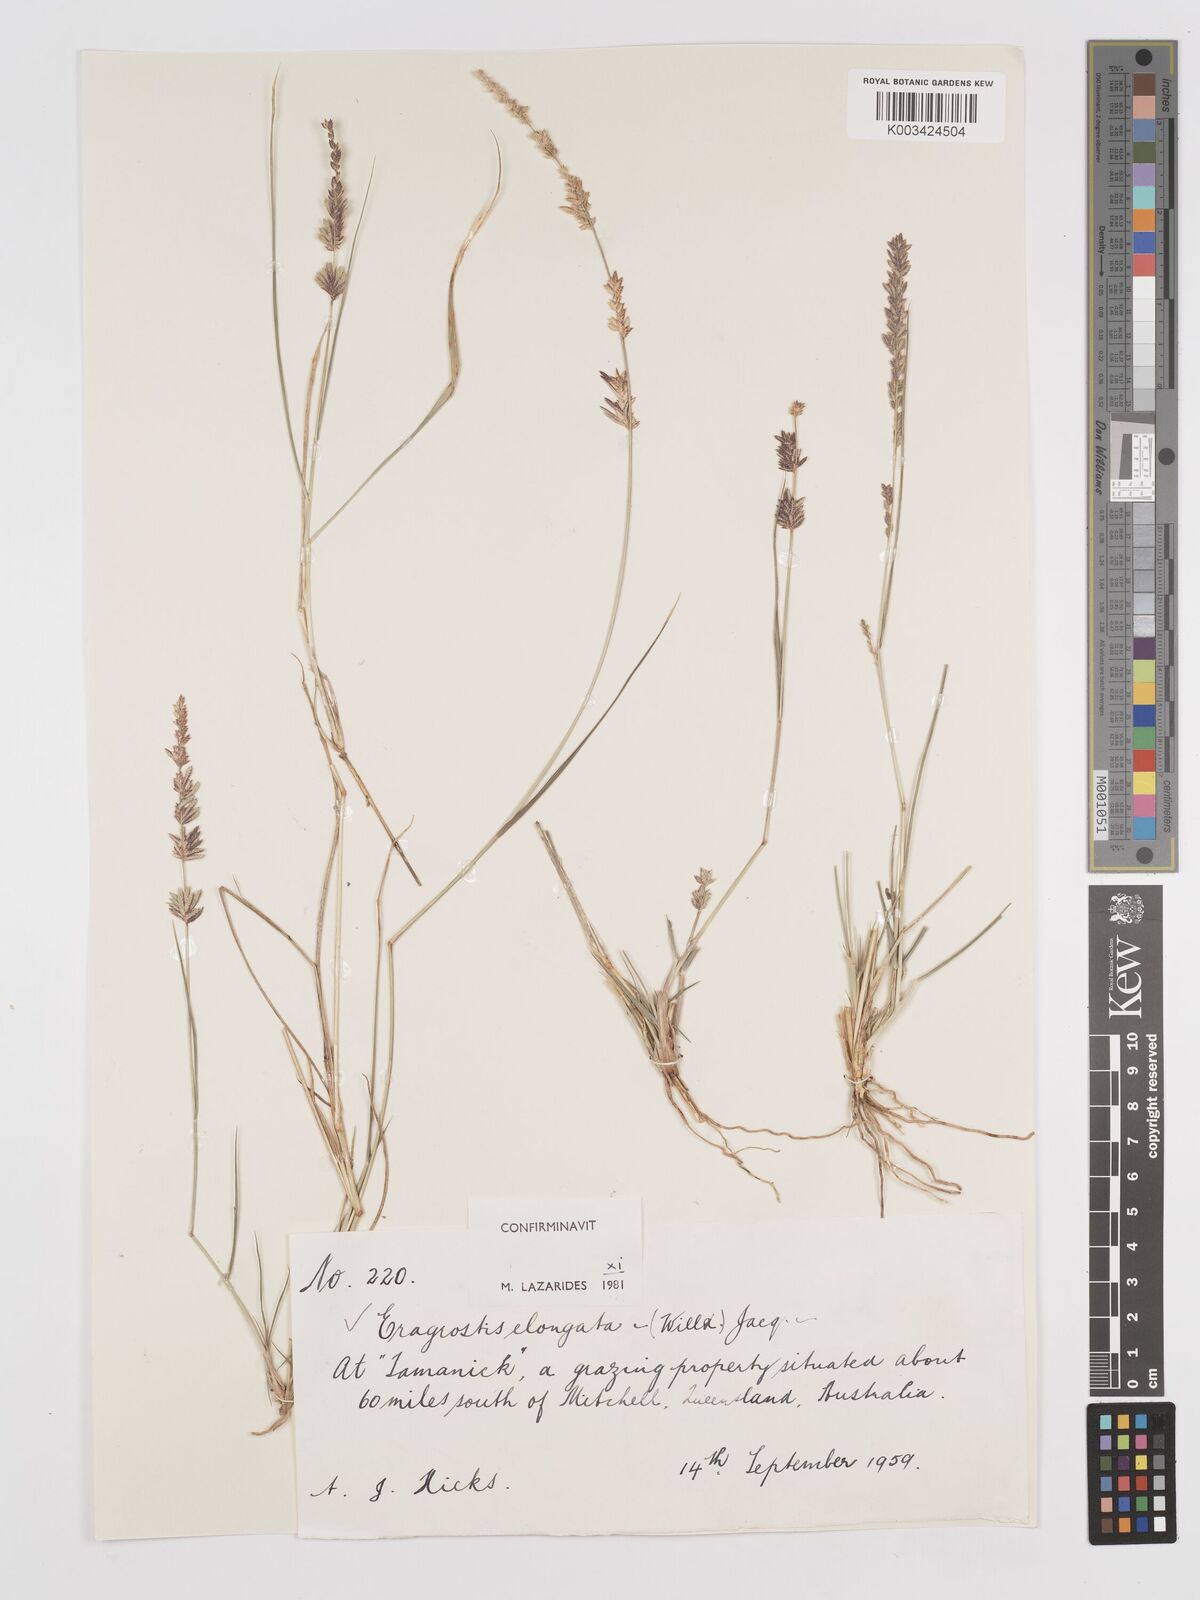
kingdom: Plantae
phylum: Tracheophyta
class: Liliopsida
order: Poales
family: Poaceae
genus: Eragrostis
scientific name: Eragrostis elongata
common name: Long lovegrass
